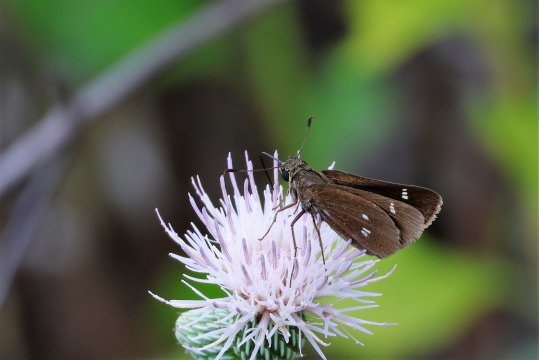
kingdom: Animalia
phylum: Arthropoda
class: Insecta
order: Lepidoptera
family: Hesperiidae
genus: Oligoria
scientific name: Oligoria maculata
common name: Twin-spot Skipper
